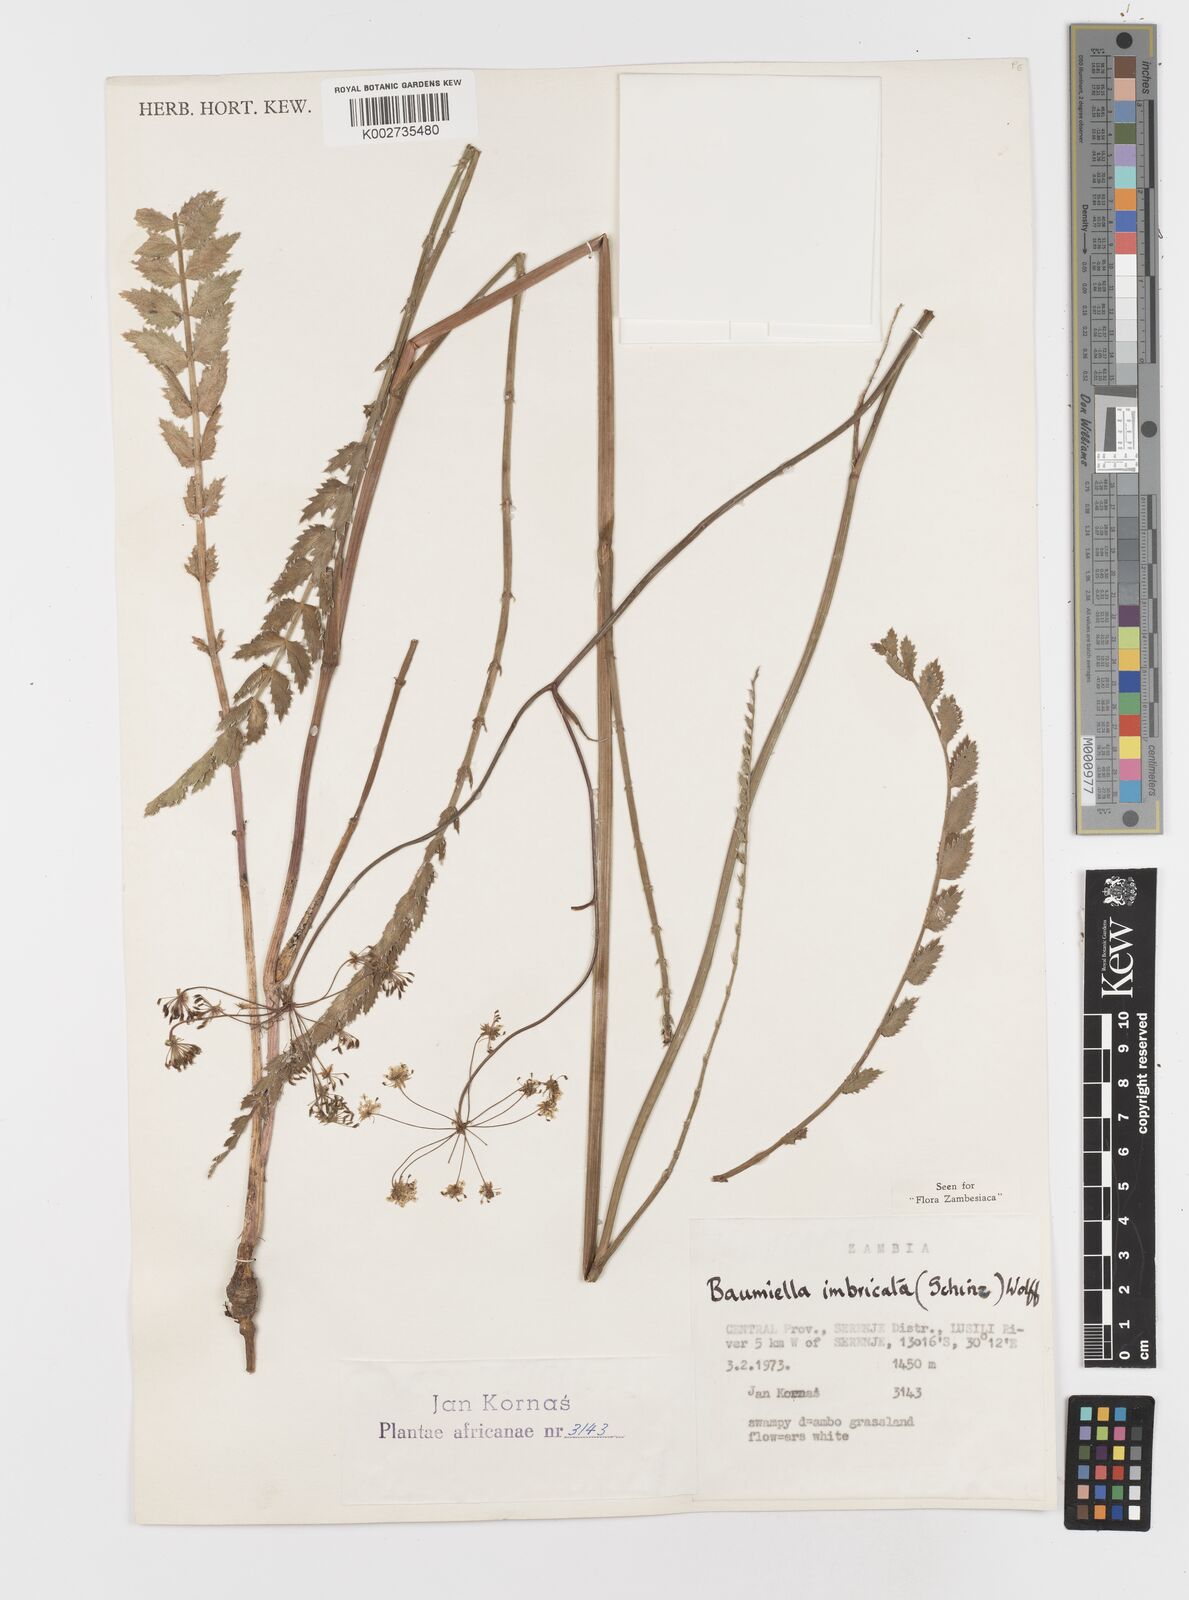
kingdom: Plantae
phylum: Tracheophyta
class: Magnoliopsida
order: Apiales
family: Apiaceae
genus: Berula
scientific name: Berula imbricata
